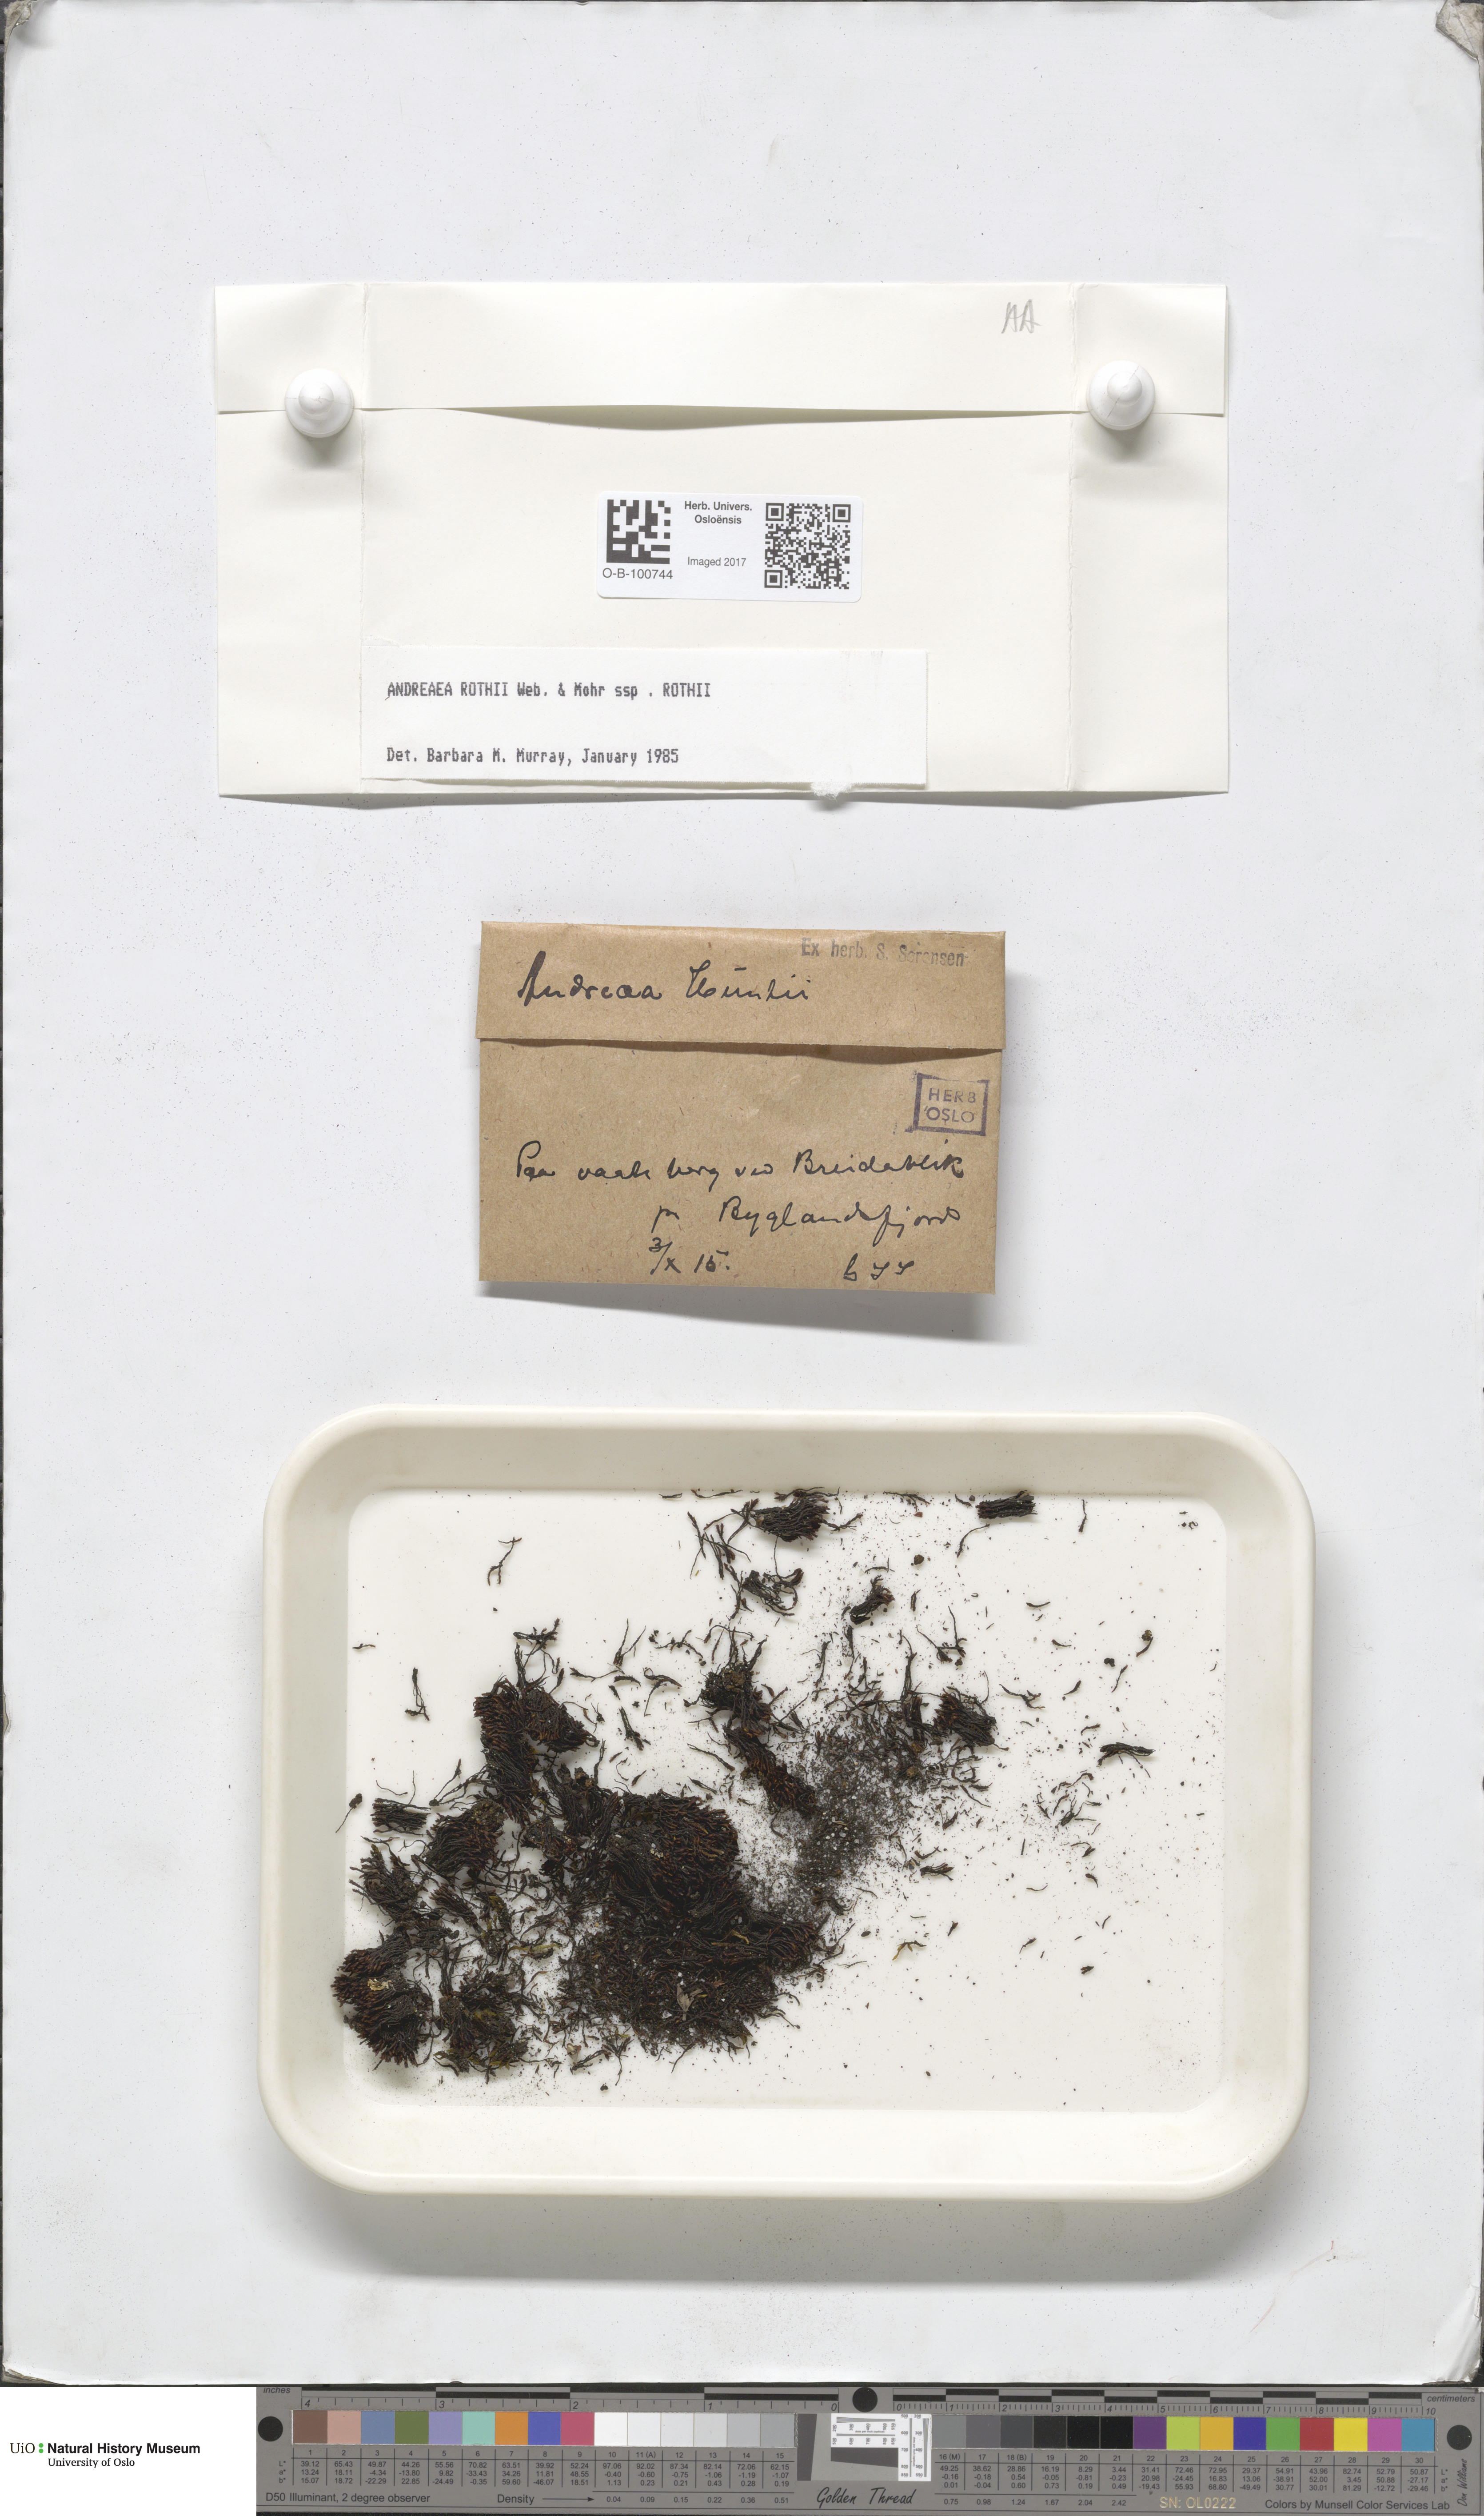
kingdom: Plantae
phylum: Bryophyta
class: Andreaeopsida
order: Andreaeales
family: Andreaeaceae
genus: Andreaea
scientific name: Andreaea rothii
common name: Dusky rock moss
